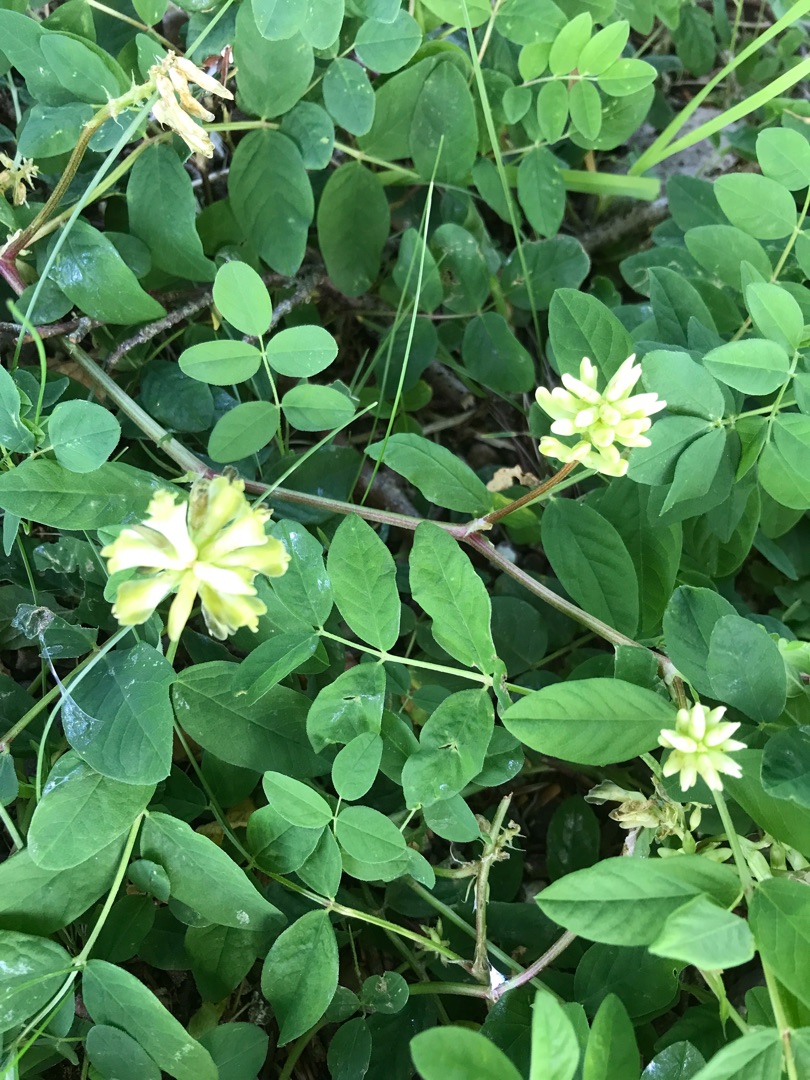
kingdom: Plantae
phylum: Tracheophyta
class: Magnoliopsida
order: Fabales
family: Fabaceae
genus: Astragalus
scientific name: Astragalus glycyphyllos
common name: Sød astragel
